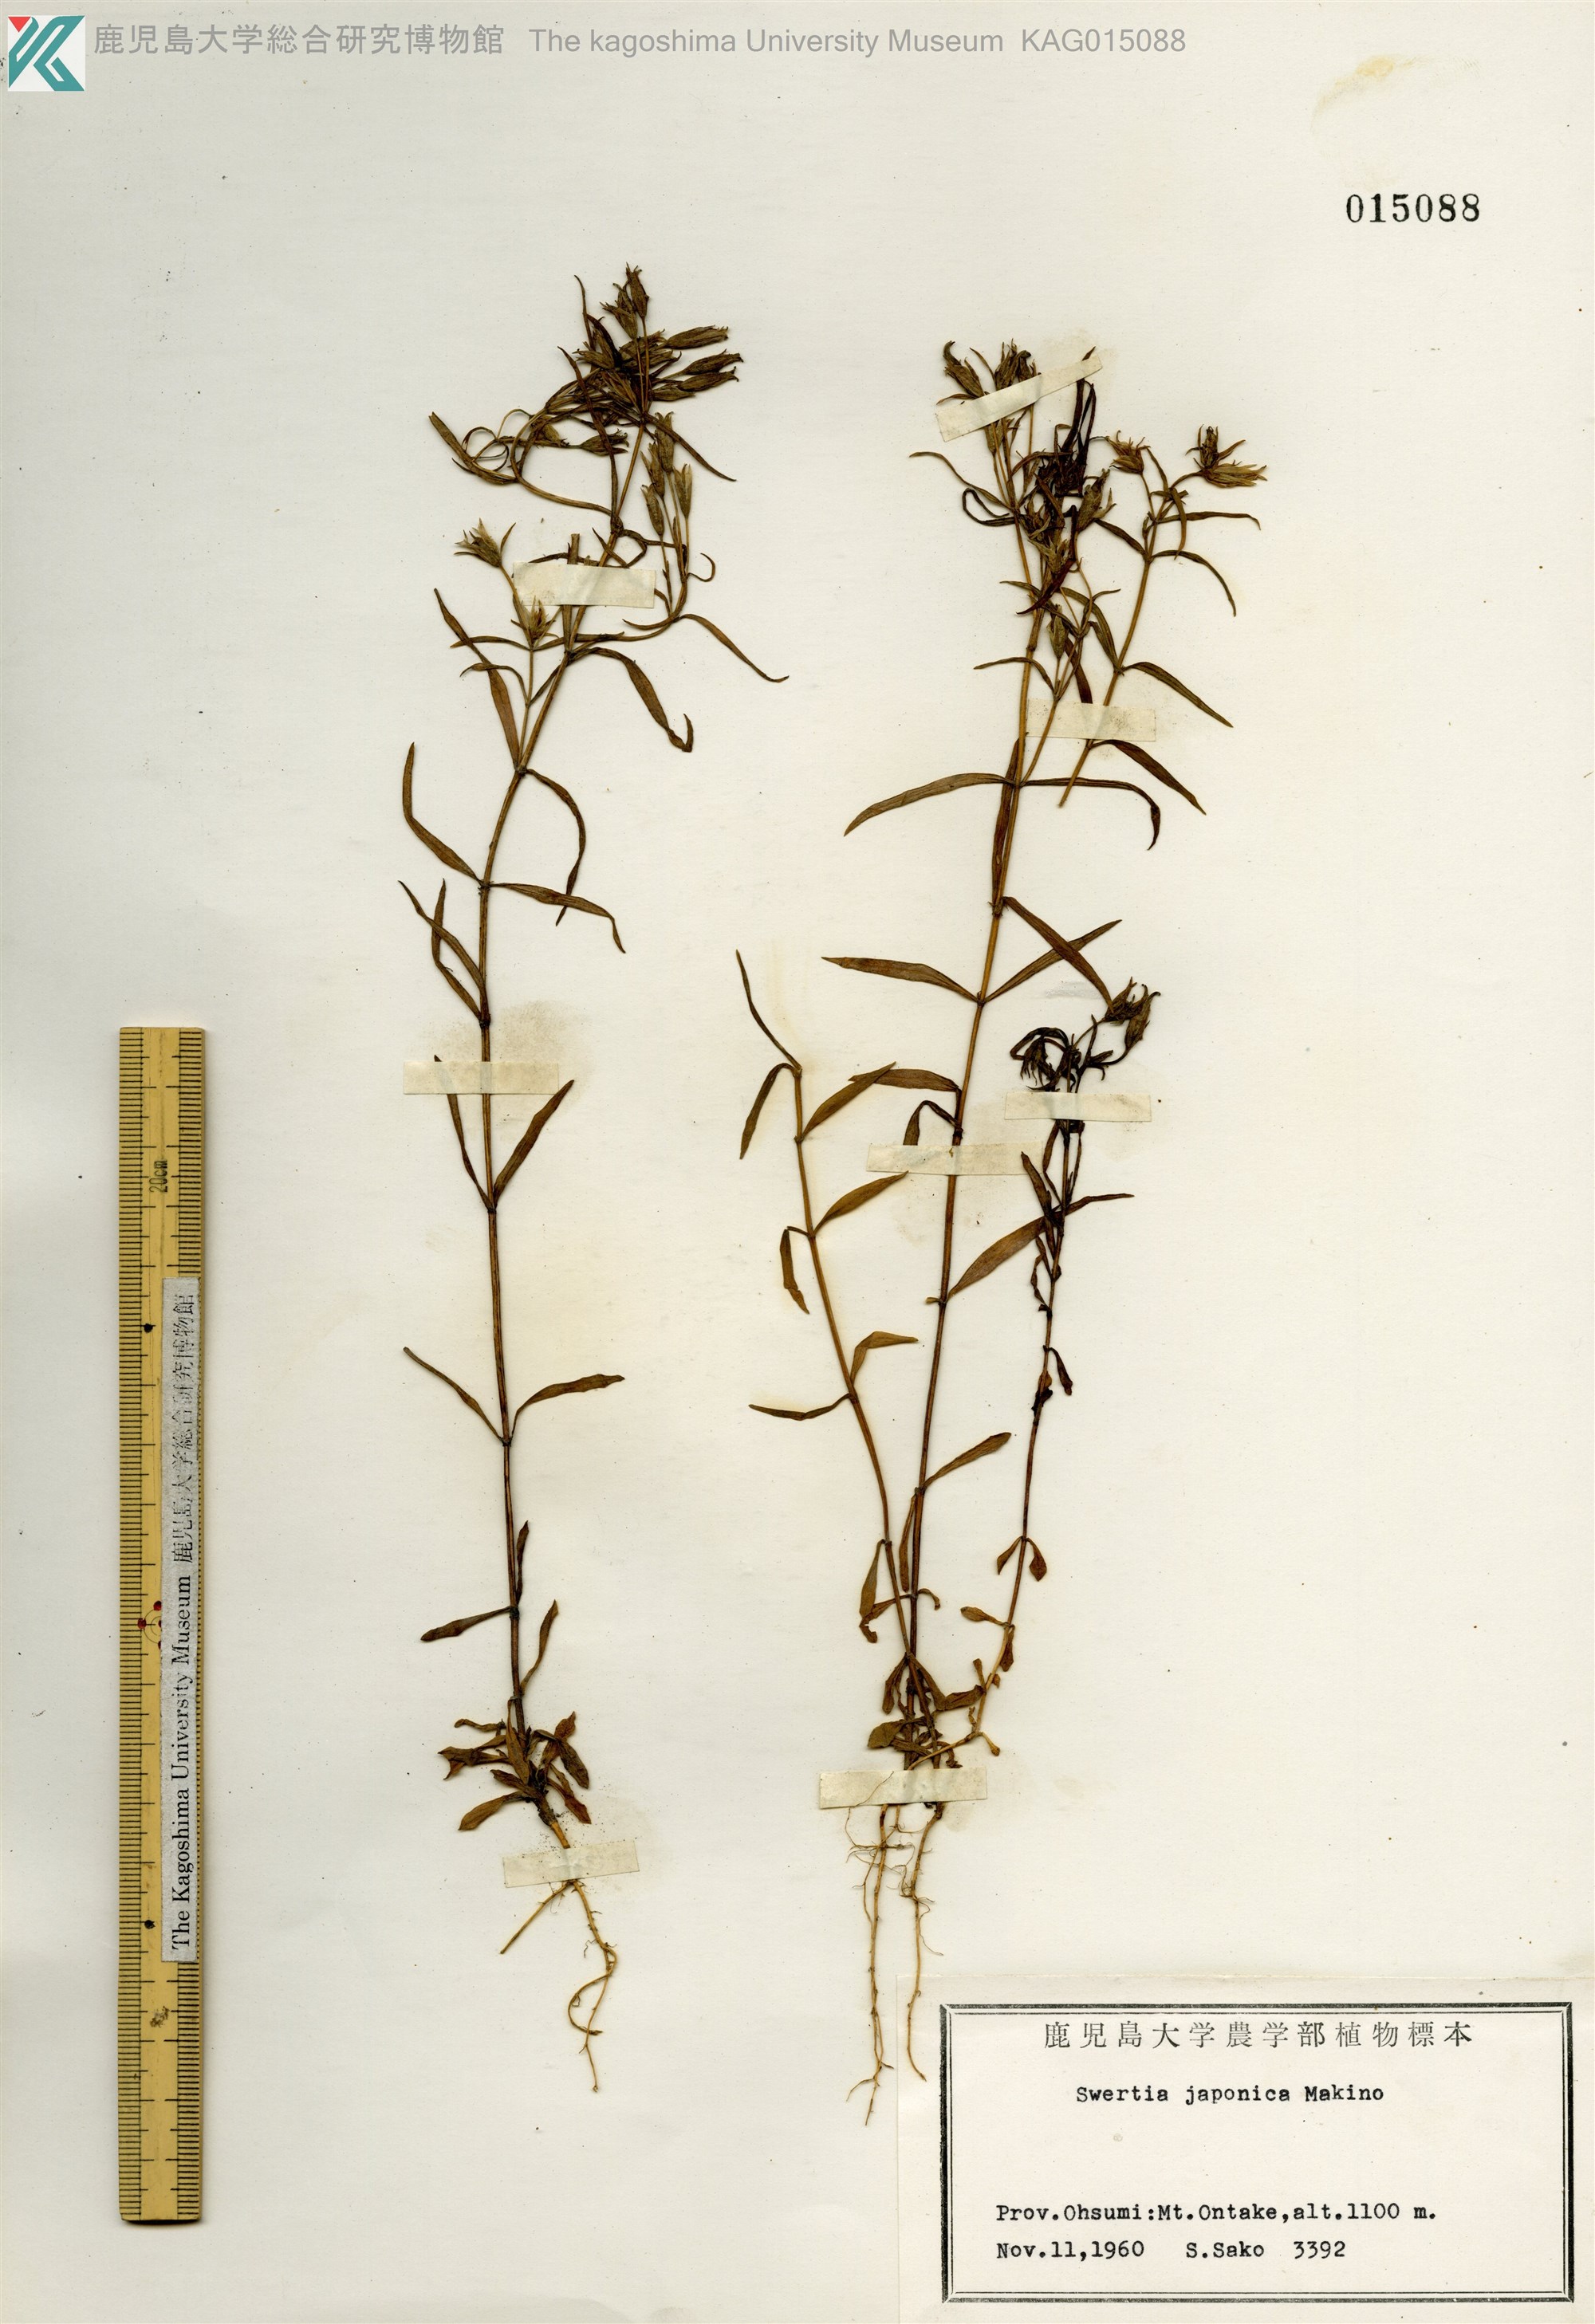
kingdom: Plantae
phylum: Tracheophyta
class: Magnoliopsida
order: Gentianales
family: Gentianaceae
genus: Swertia
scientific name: Swertia japonica
